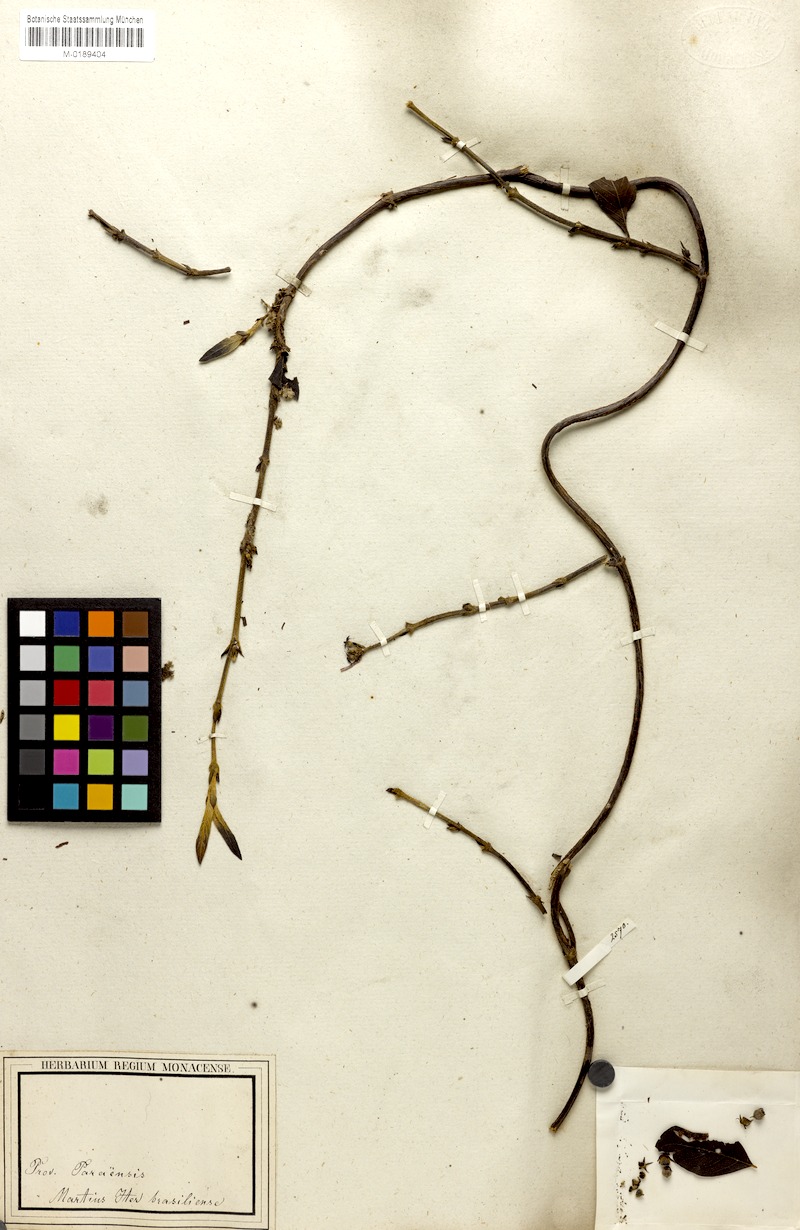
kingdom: Plantae
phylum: Tracheophyta
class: Magnoliopsida
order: Gentianales
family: Rubiaceae
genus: Sabicea
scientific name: Sabicea panamensis
